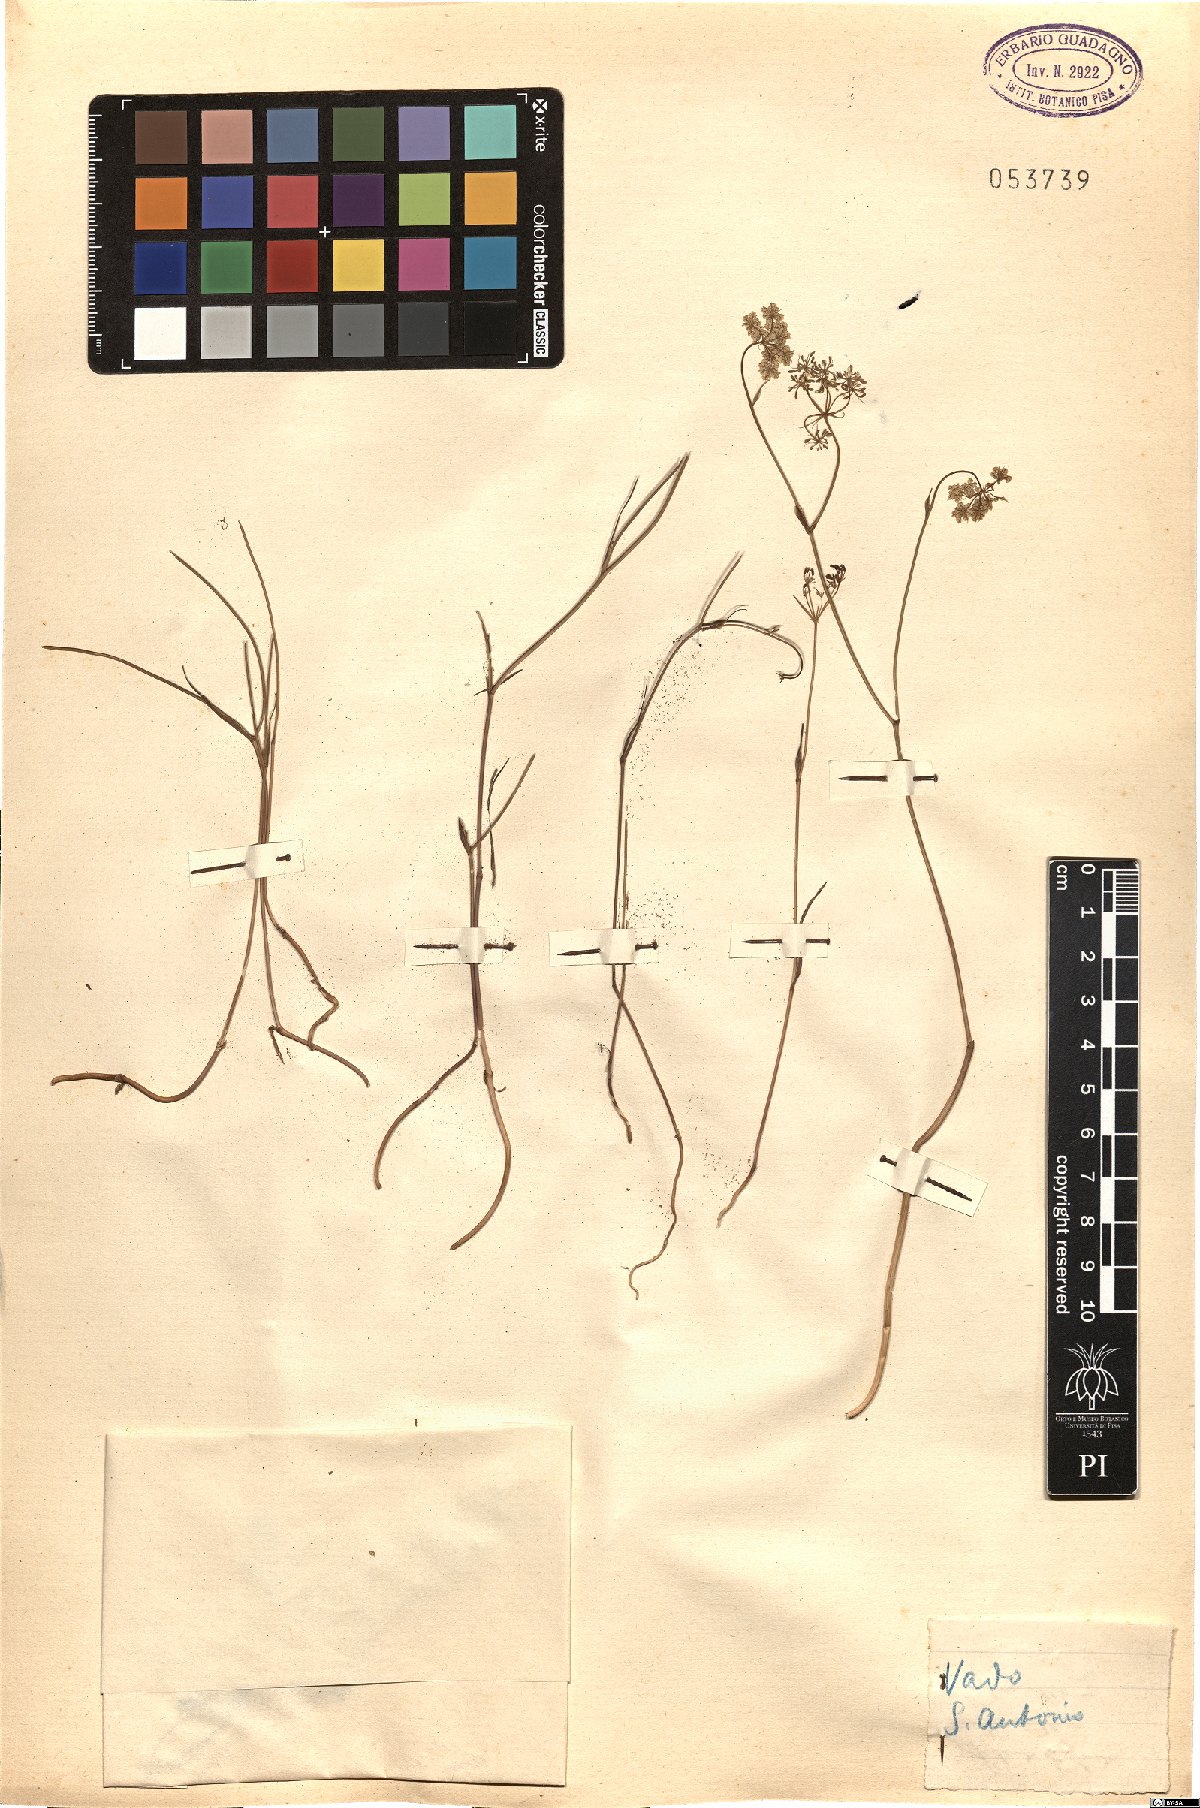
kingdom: Plantae
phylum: Tracheophyta
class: Magnoliopsida
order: Apiales
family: Apiaceae
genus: Bunium
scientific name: Bunium
